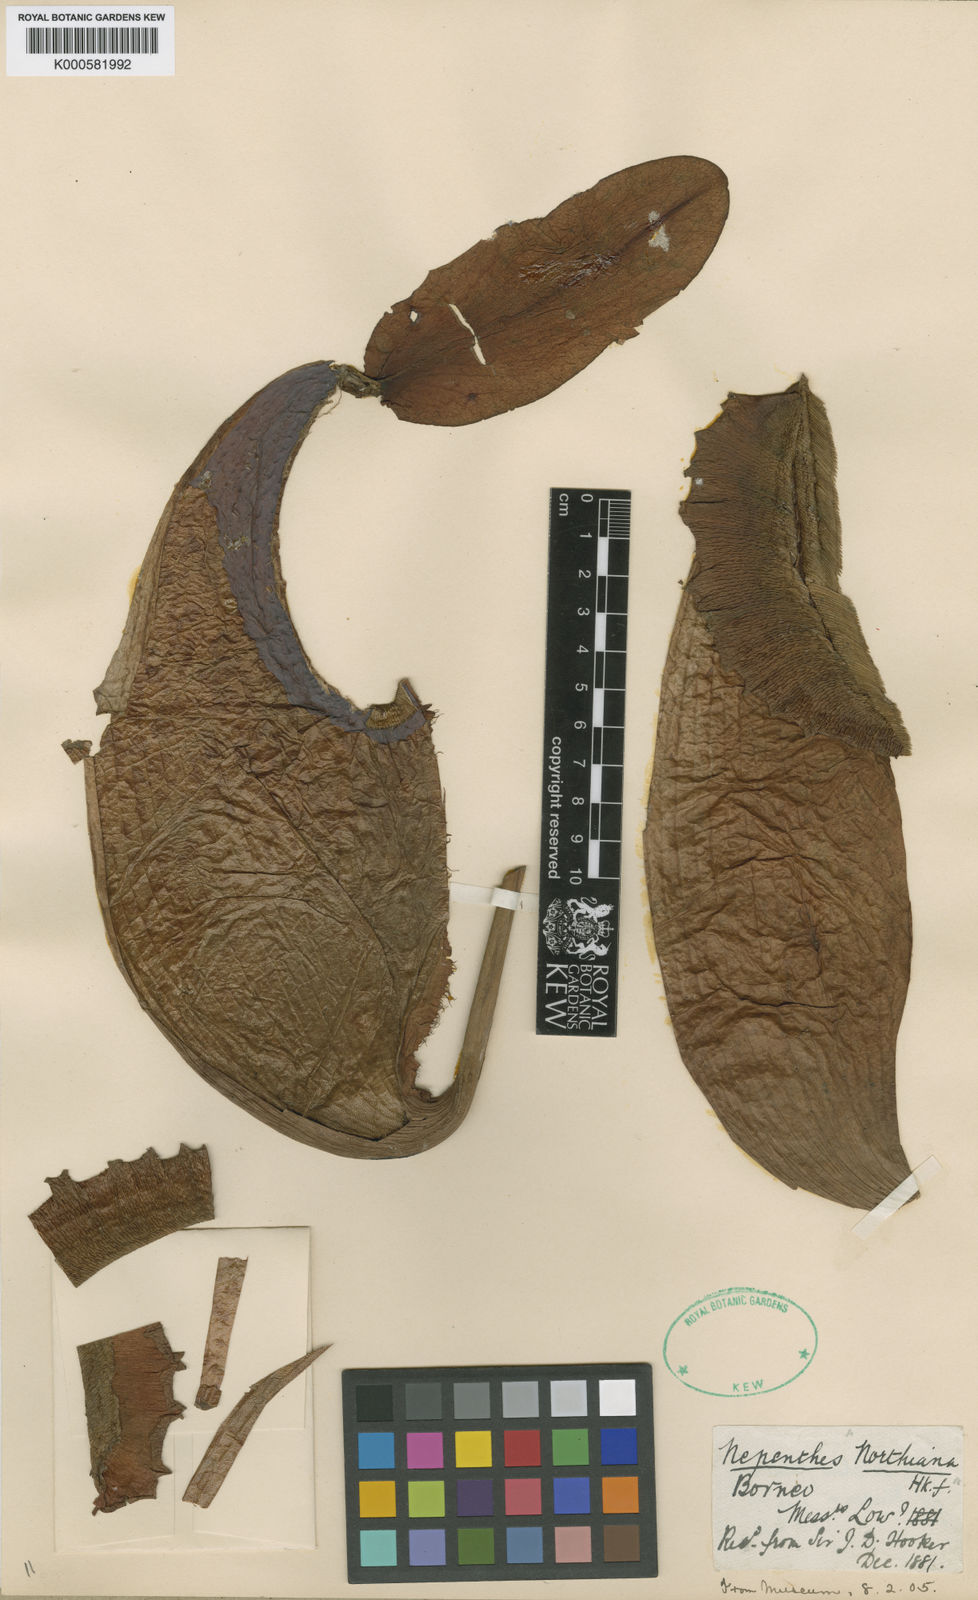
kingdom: Plantae
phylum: Tracheophyta
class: Magnoliopsida
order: Caryophyllales
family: Nepenthaceae
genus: Nepenthes
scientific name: Nepenthes northiana
